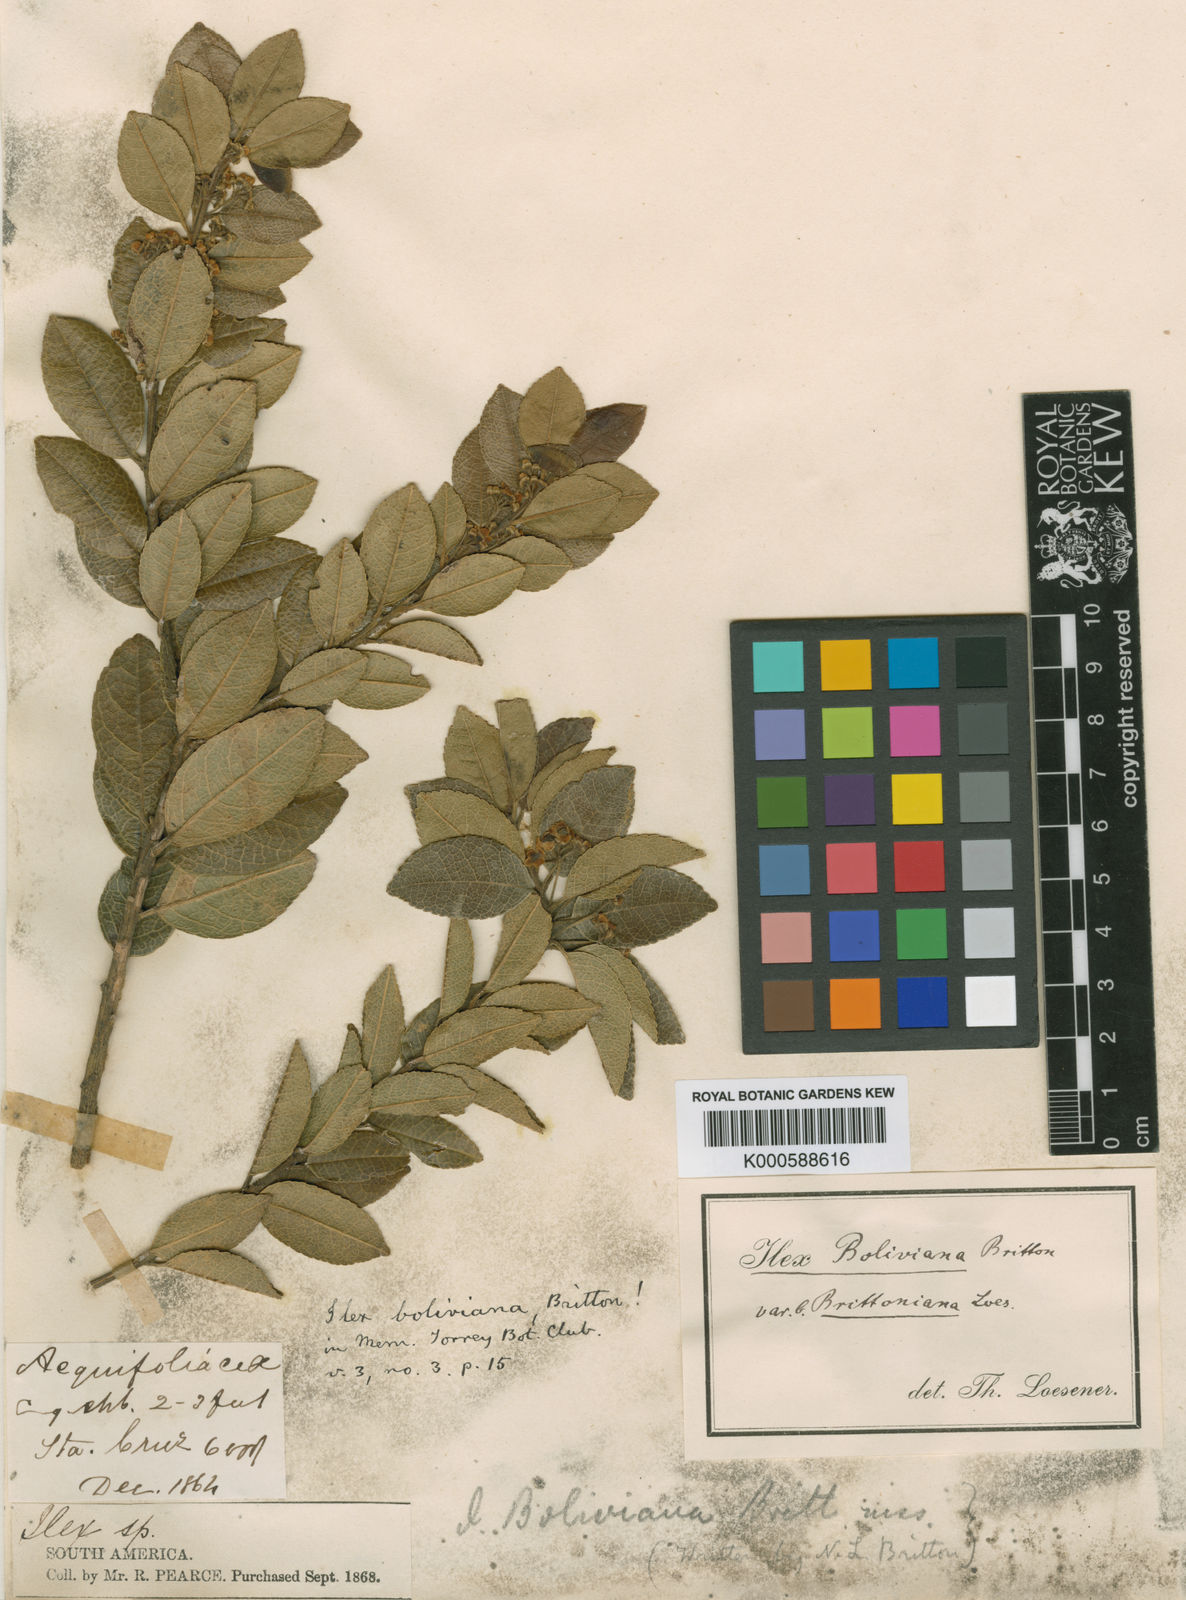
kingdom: Plantae
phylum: Tracheophyta
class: Magnoliopsida
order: Aquifoliales
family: Aquifoliaceae
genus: Ilex
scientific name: Ilex boliviana
